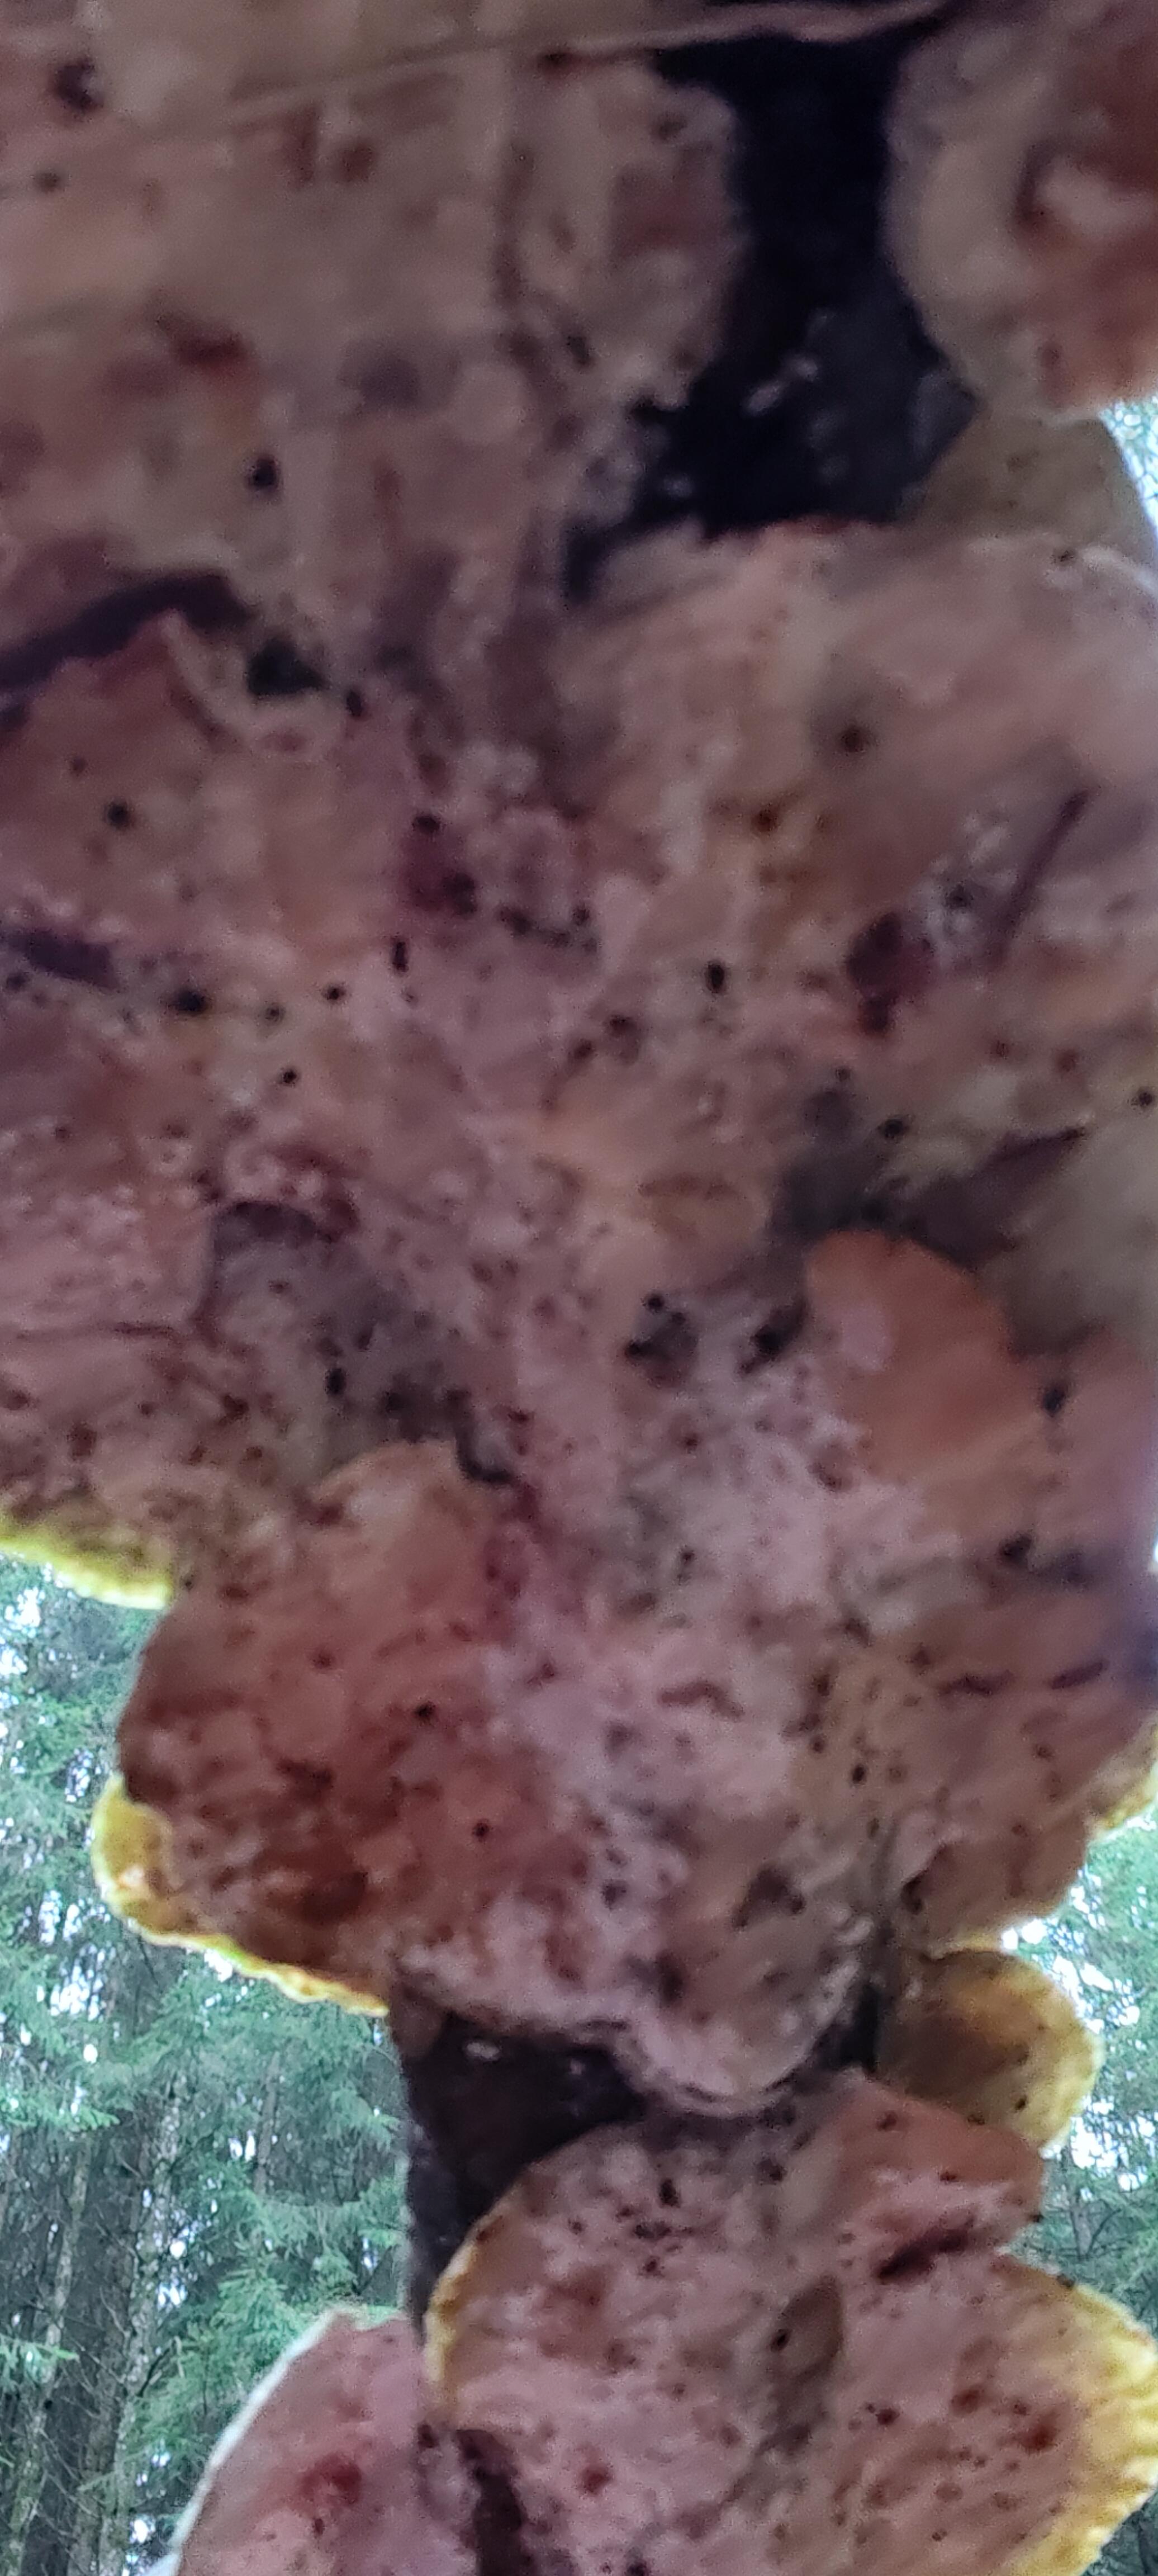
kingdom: Fungi
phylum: Basidiomycota
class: Agaricomycetes
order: Polyporales
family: Polyporaceae
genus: Trametes
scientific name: Trametes hirsuta
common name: håret læderporesvamp
